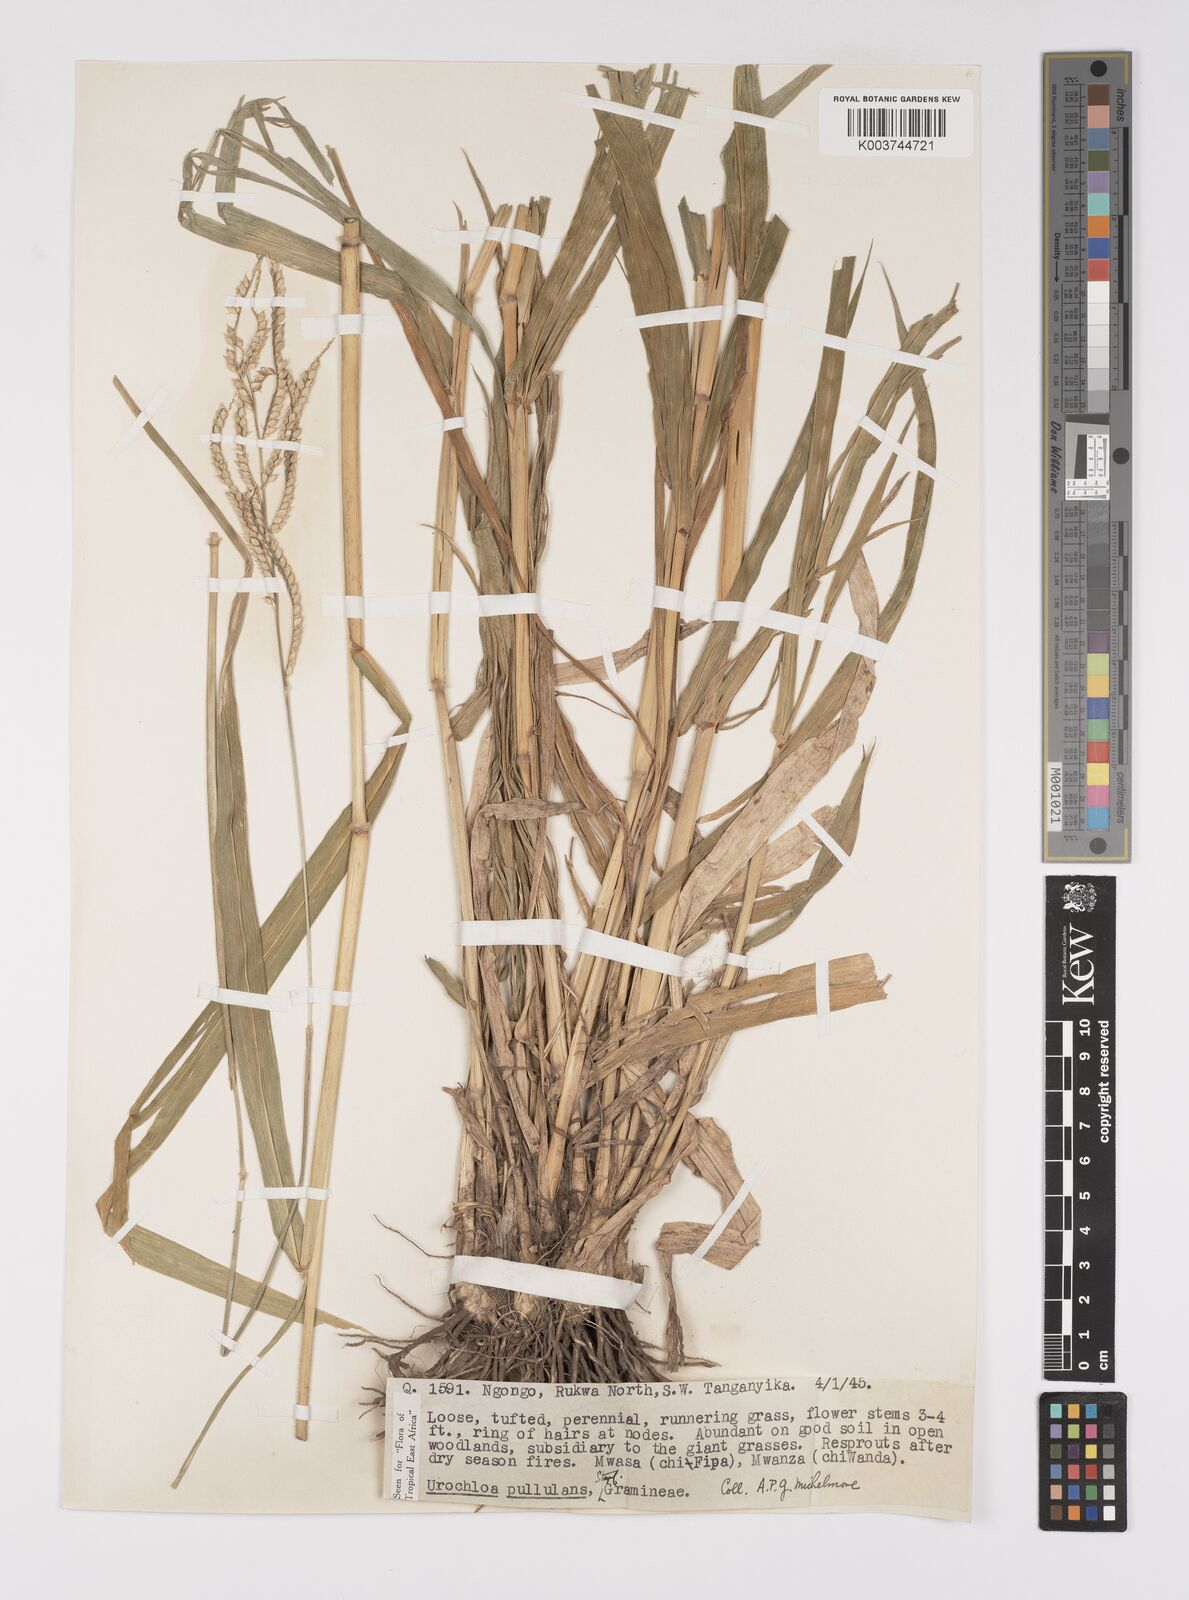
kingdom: Plantae
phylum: Tracheophyta
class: Liliopsida
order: Poales
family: Poaceae
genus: Urochloa
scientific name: Urochloa trichopus
